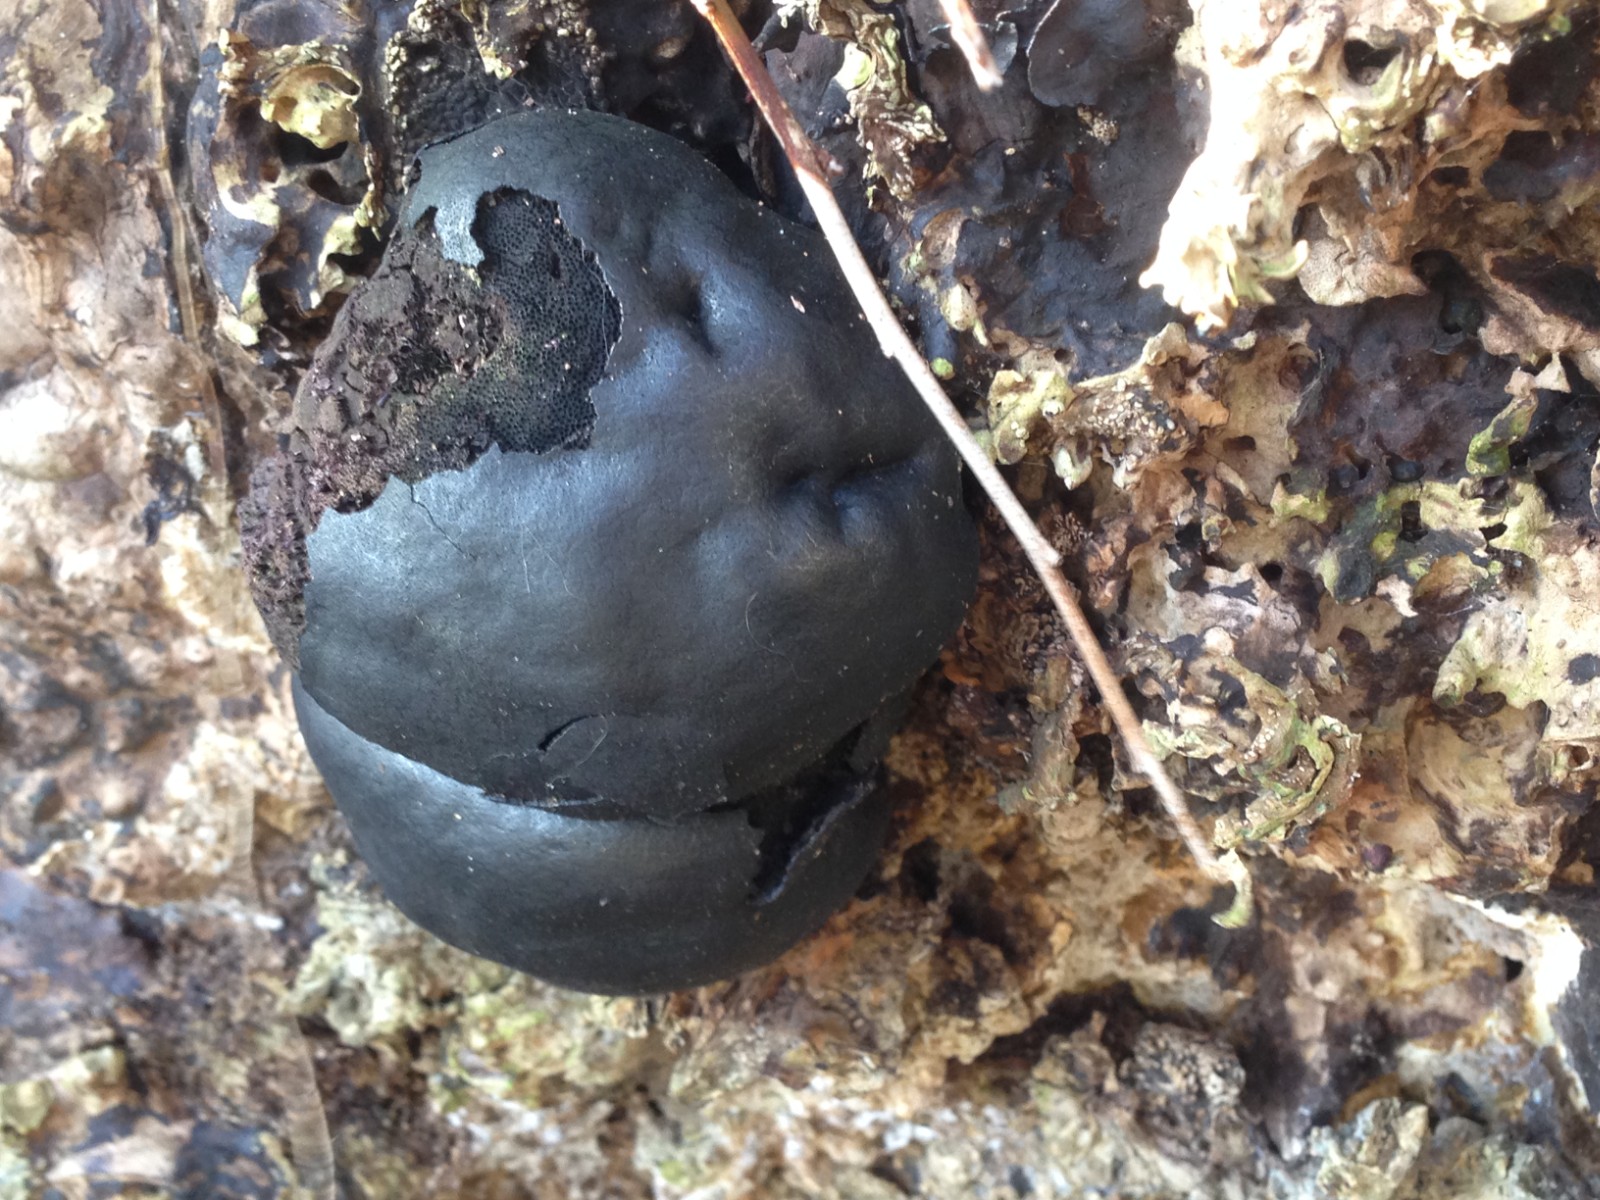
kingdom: Fungi
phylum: Ascomycota
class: Sordariomycetes
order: Xylariales
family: Hypoxylaceae
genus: Daldinia
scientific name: Daldinia concentrica
